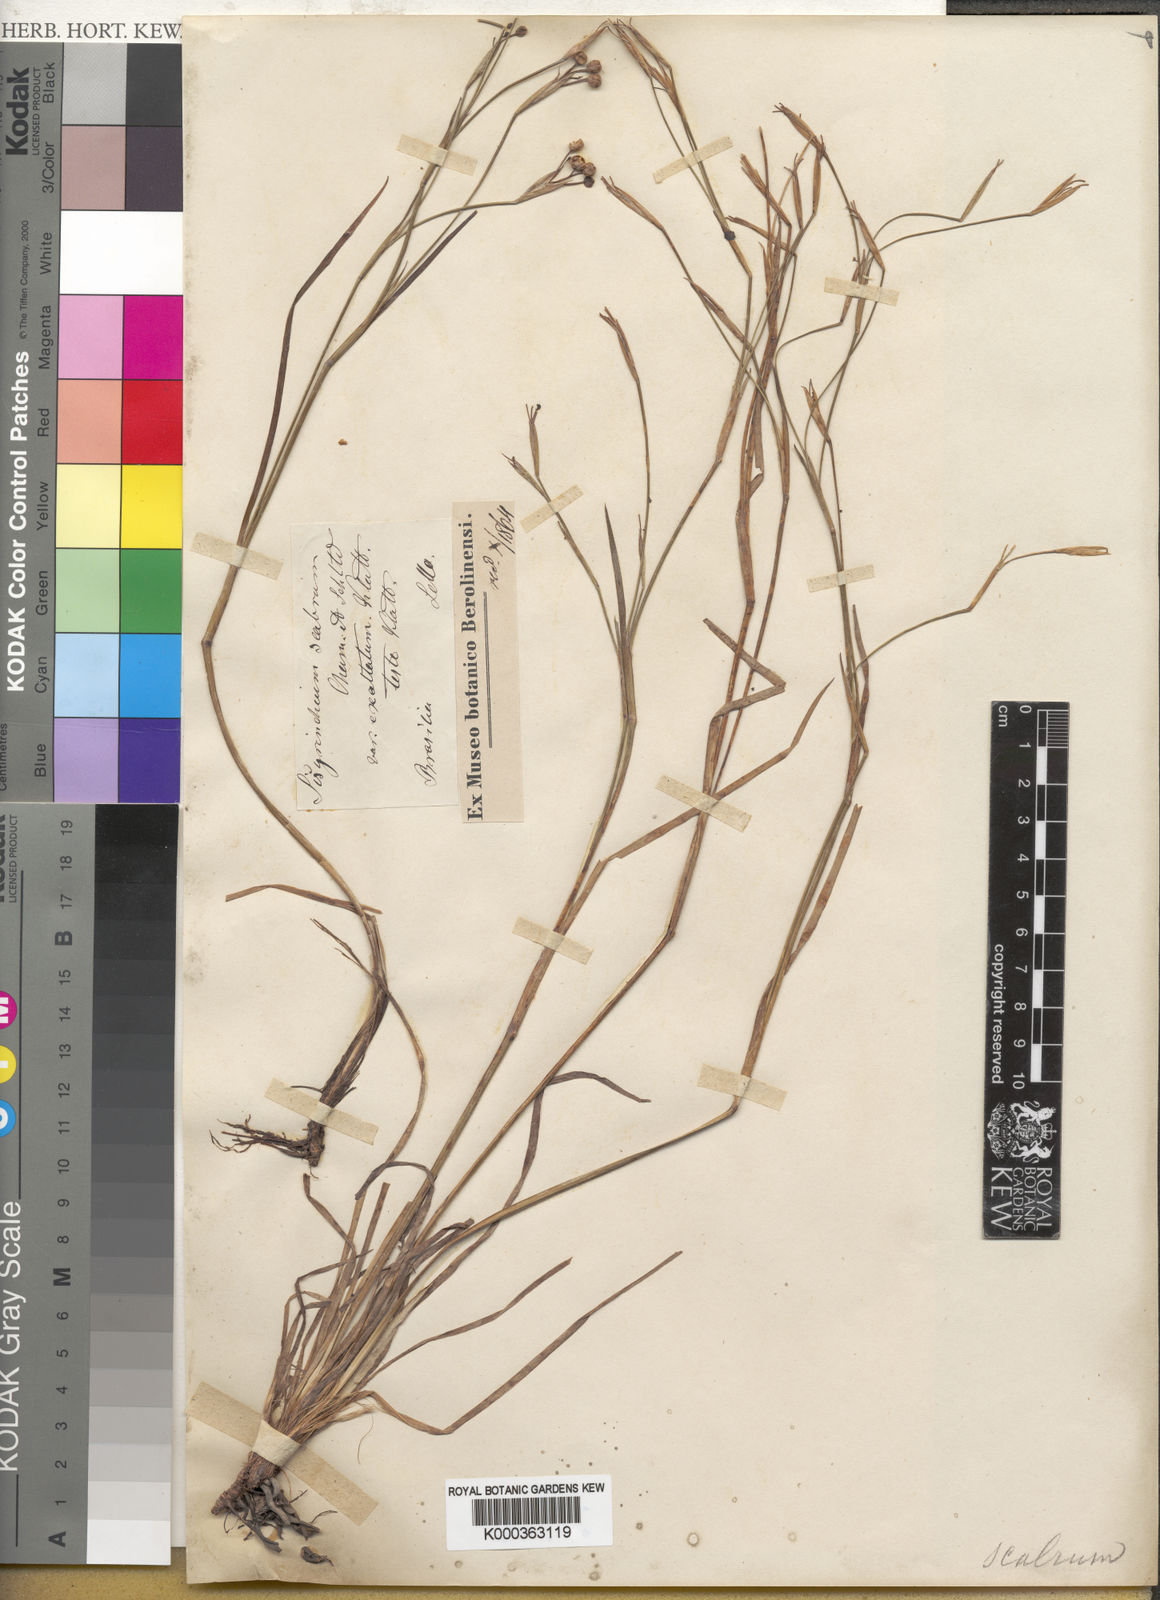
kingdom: Plantae
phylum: Tracheophyta
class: Liliopsida
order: Asparagales
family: Iridaceae
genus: Sisyrinchium
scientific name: Sisyrinchium pachyrhizum
